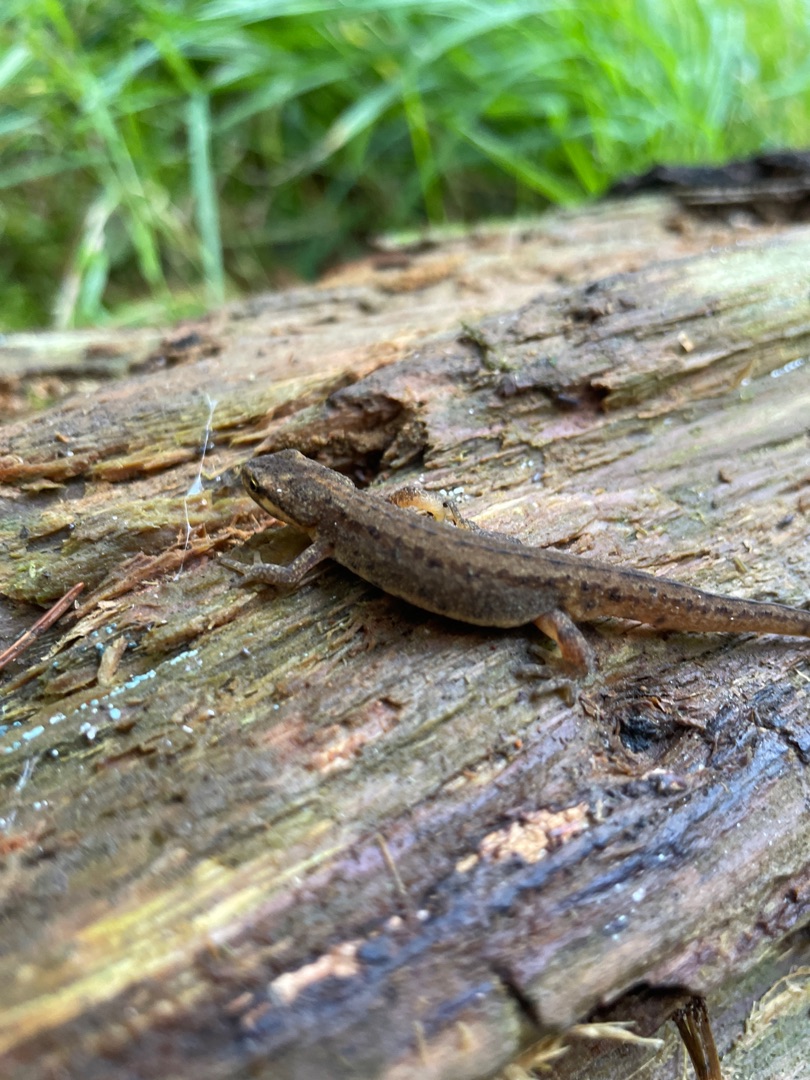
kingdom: Animalia
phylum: Chordata
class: Amphibia
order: Caudata
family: Salamandridae
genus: Lissotriton
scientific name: Lissotriton vulgaris
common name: Lille vandsalamander
